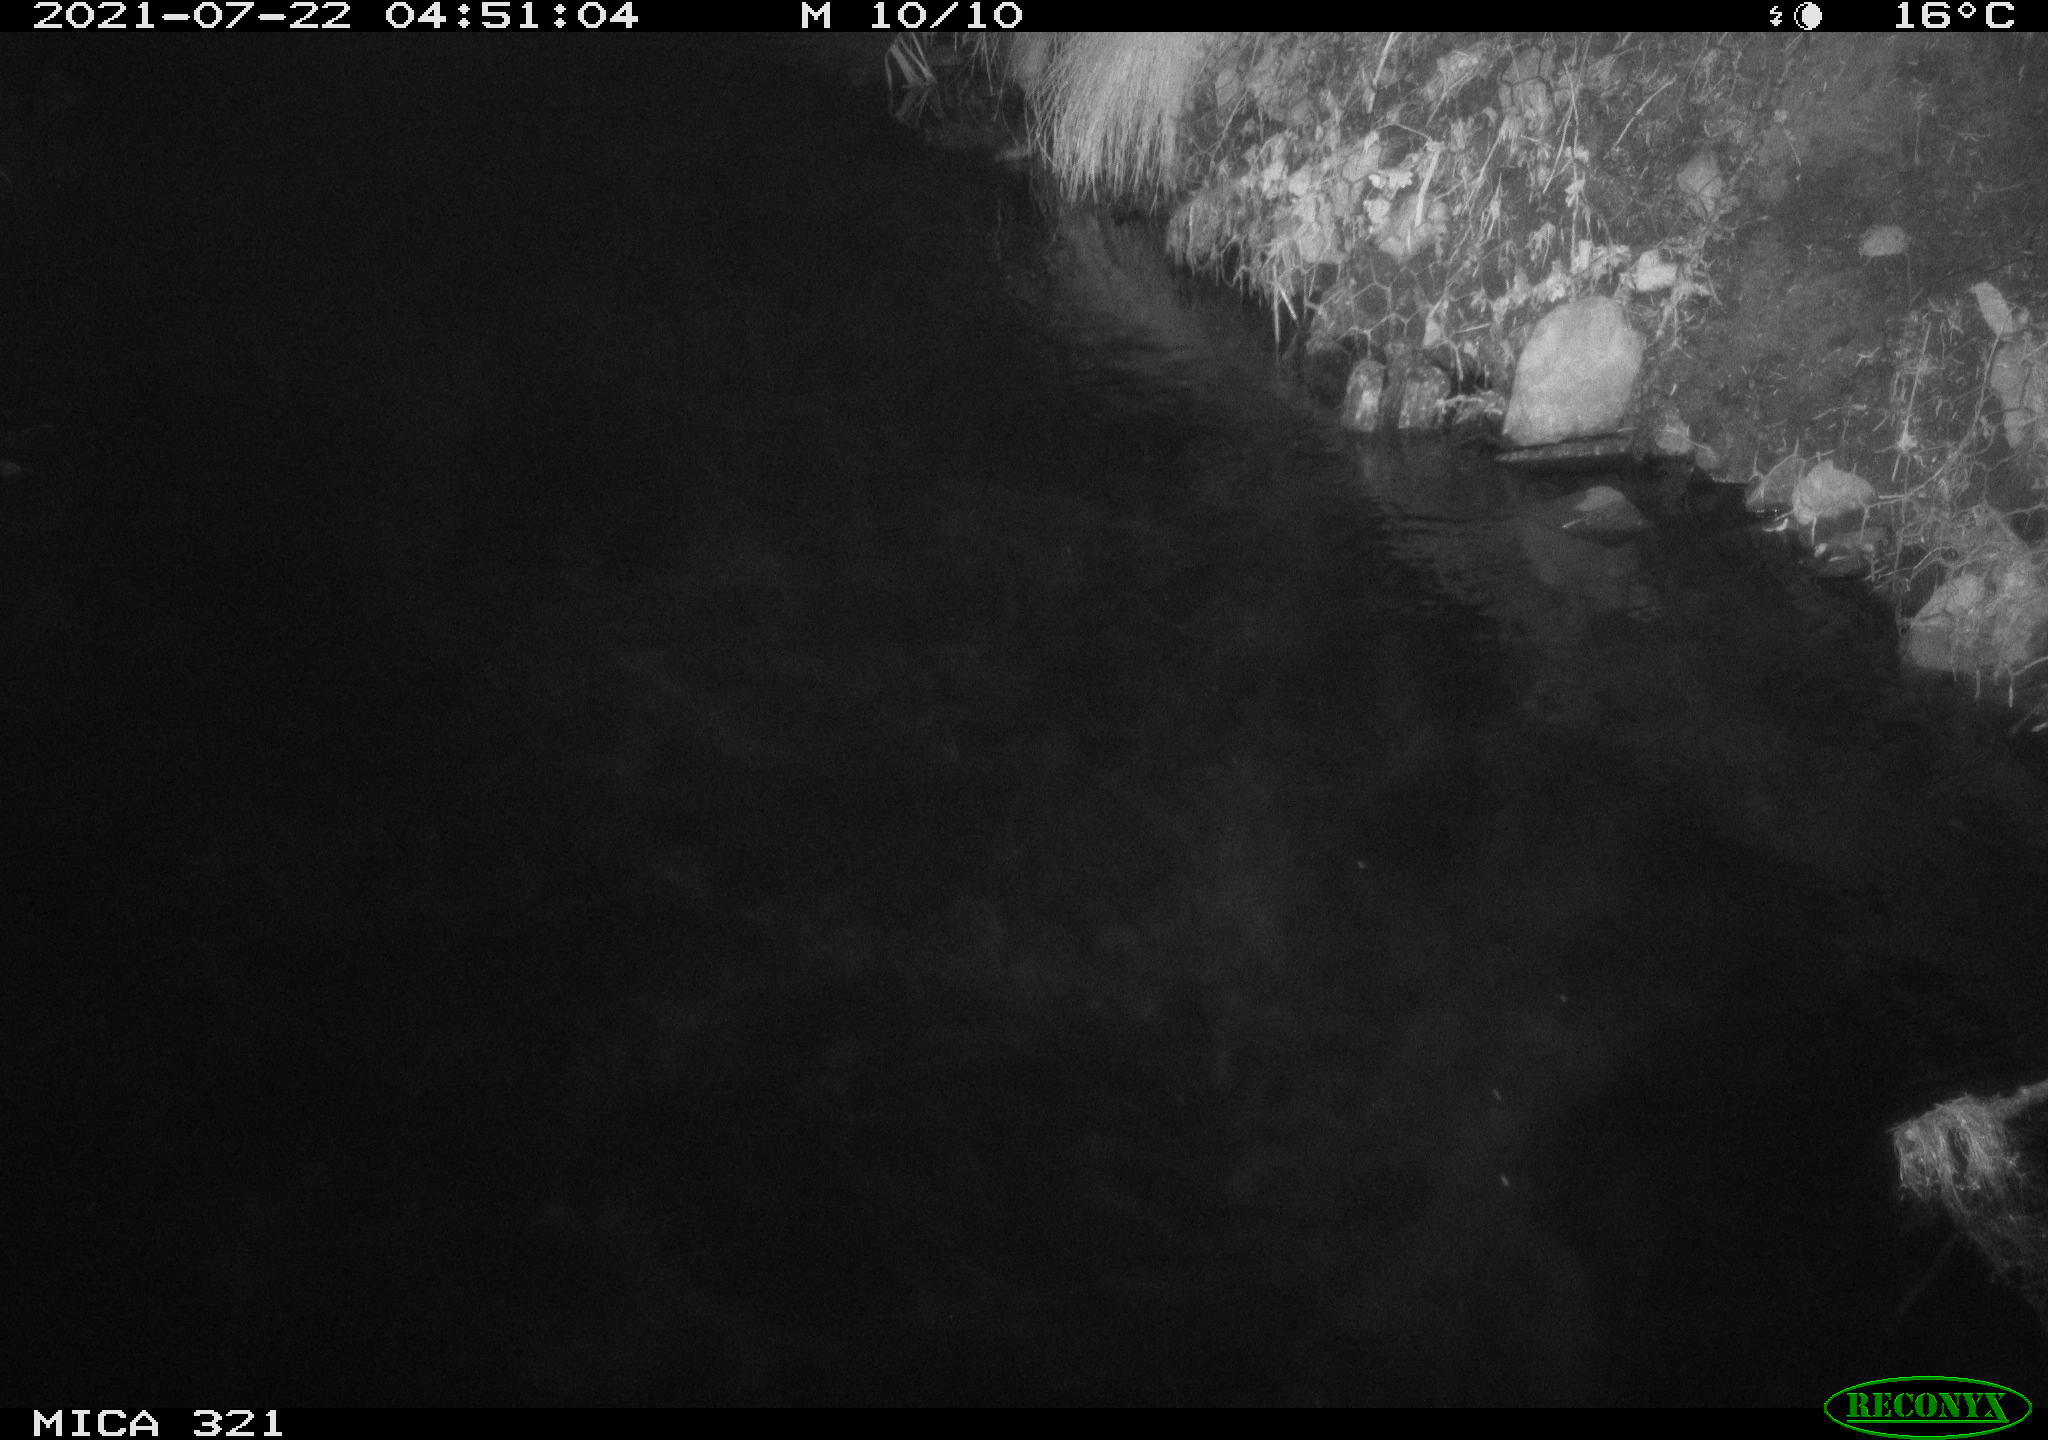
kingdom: Animalia
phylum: Chordata
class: Aves
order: Anseriformes
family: Anatidae
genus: Anas
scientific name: Anas platyrhynchos
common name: Mallard
